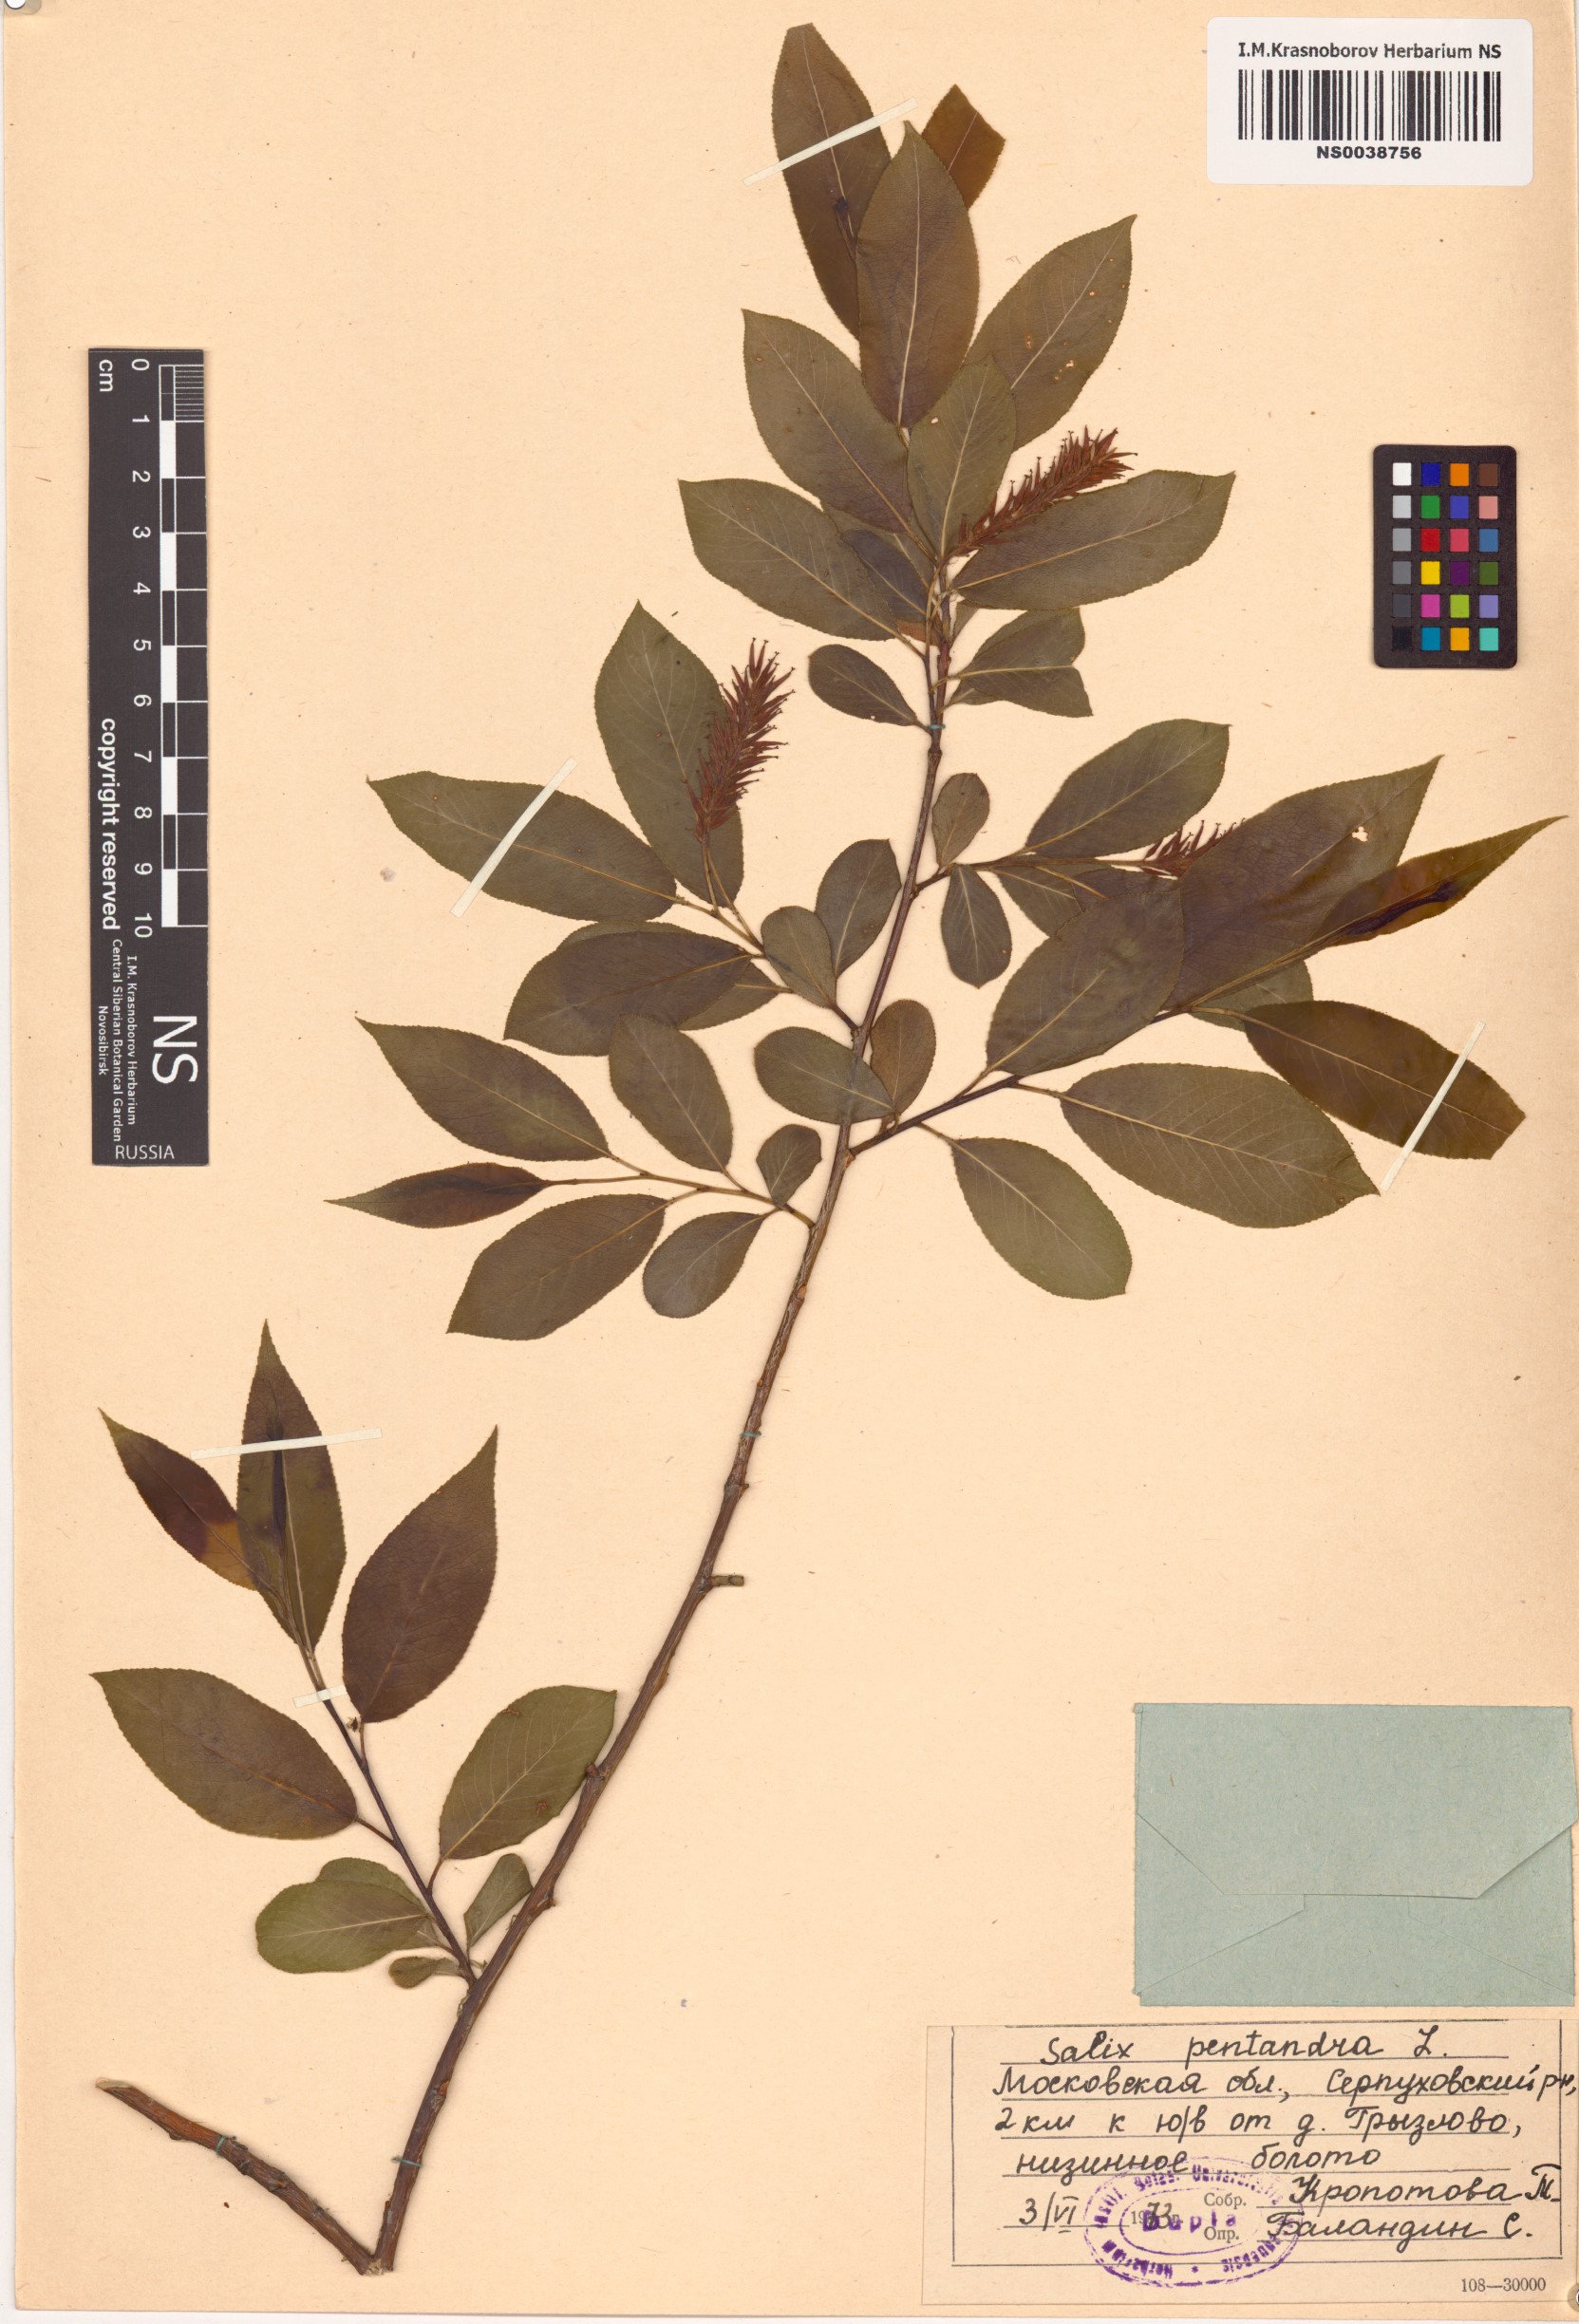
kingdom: Plantae
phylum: Tracheophyta
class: Magnoliopsida
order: Malpighiales
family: Salicaceae
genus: Salix
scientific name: Salix pentandra
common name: Bay willow
